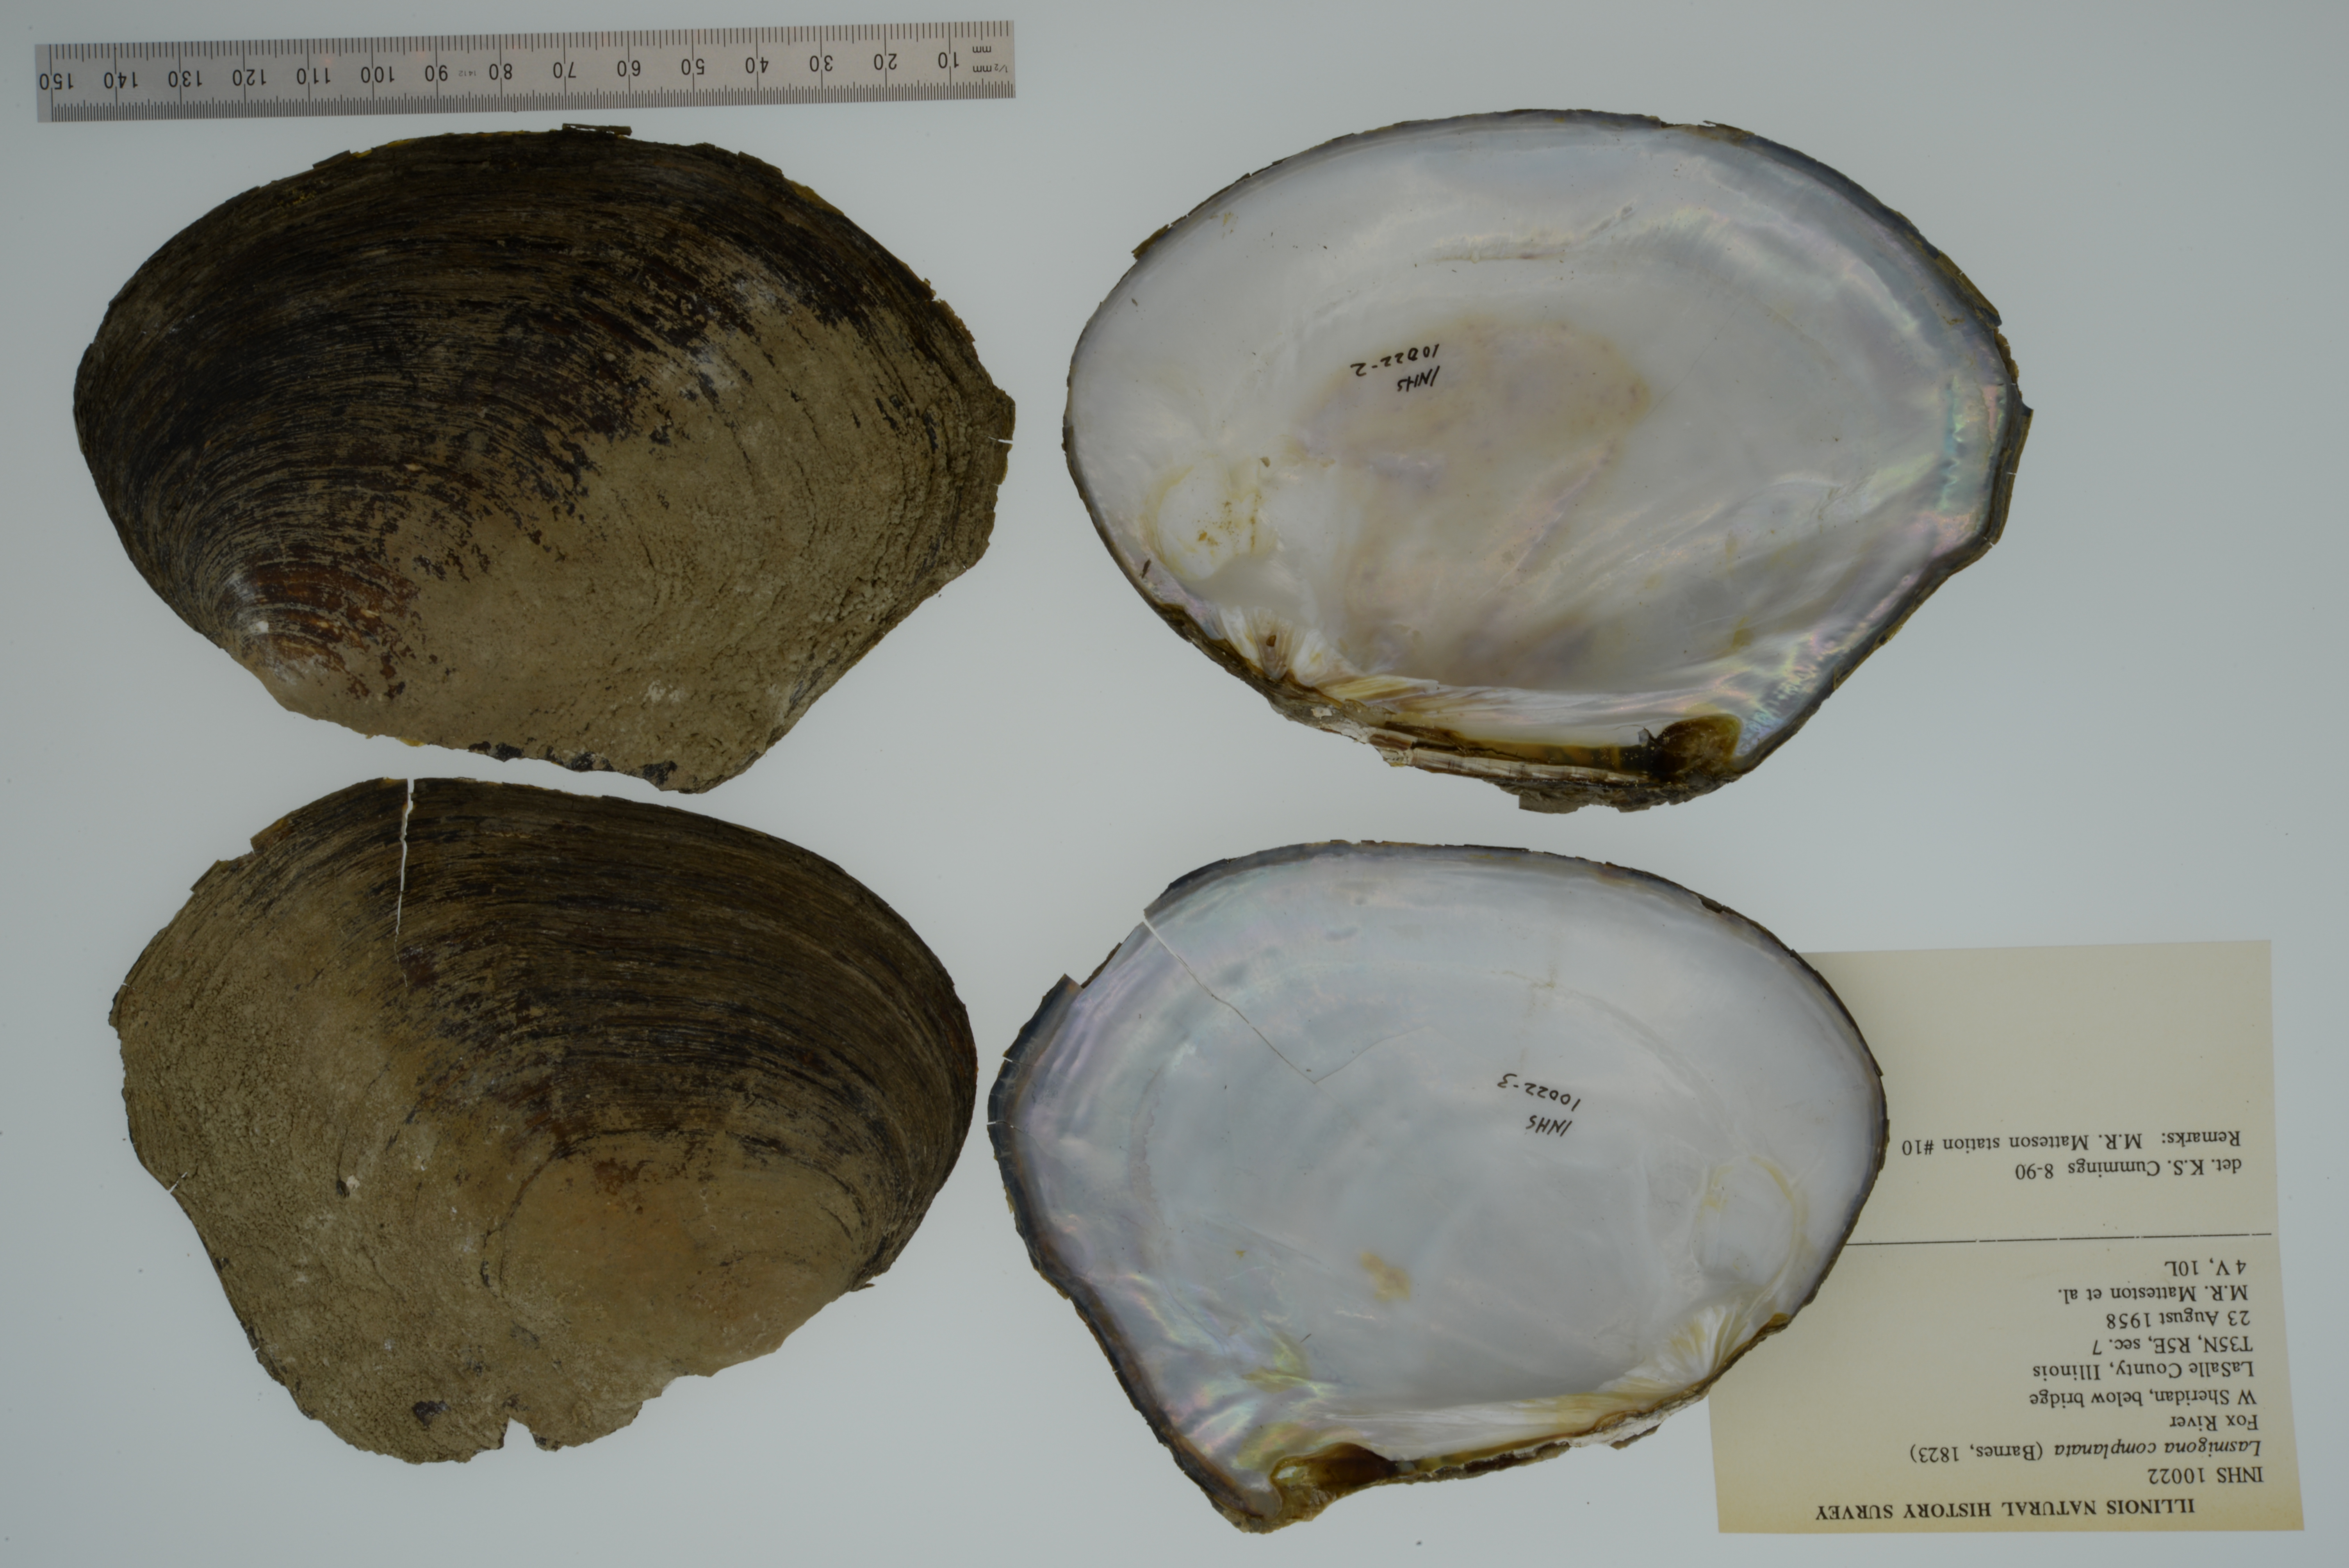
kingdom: Animalia
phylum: Mollusca
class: Bivalvia
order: Unionida
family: Unionidae
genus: Lasmigona
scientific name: Lasmigona complanata
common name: White heelsplitter
